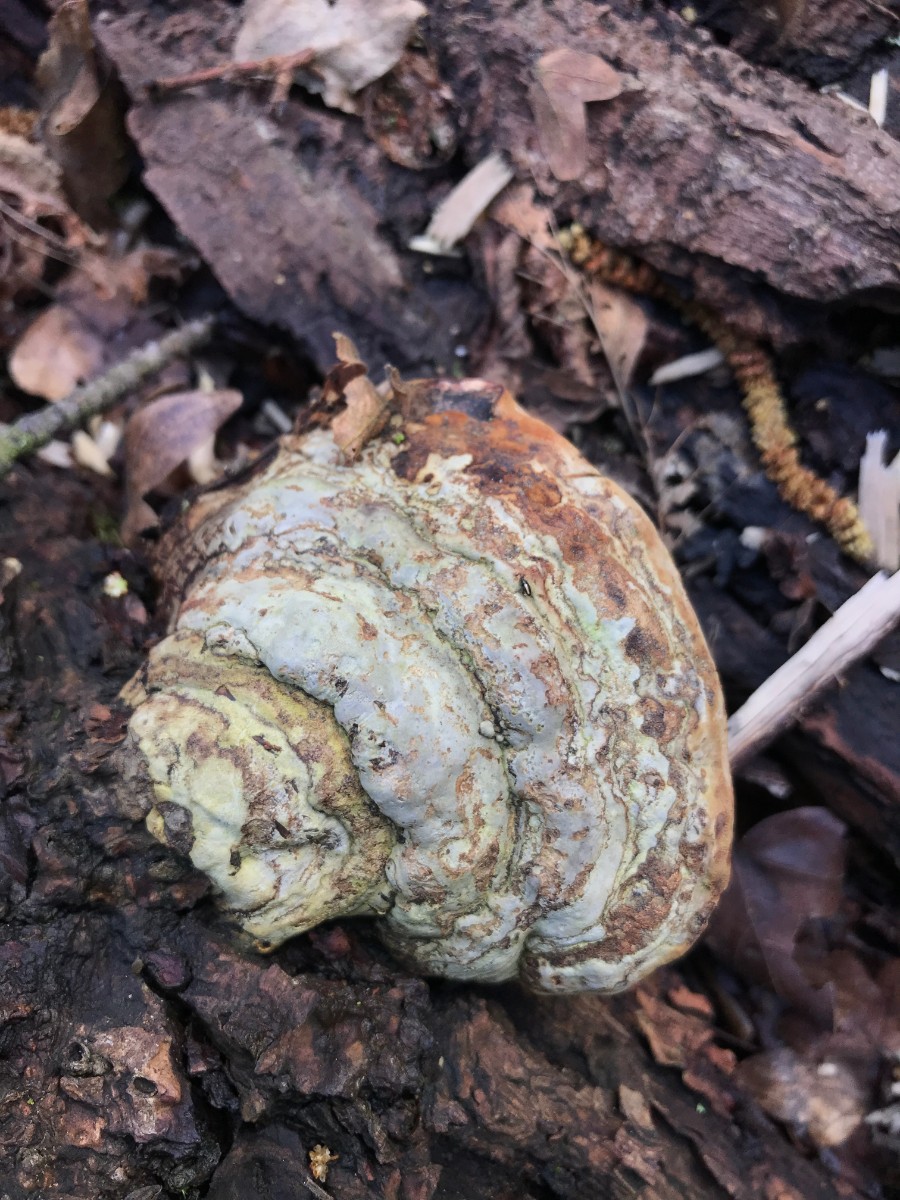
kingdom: Fungi
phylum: Basidiomycota
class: Agaricomycetes
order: Polyporales
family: Polyporaceae
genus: Fomes
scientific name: Fomes fomentarius
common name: tøndersvamp
